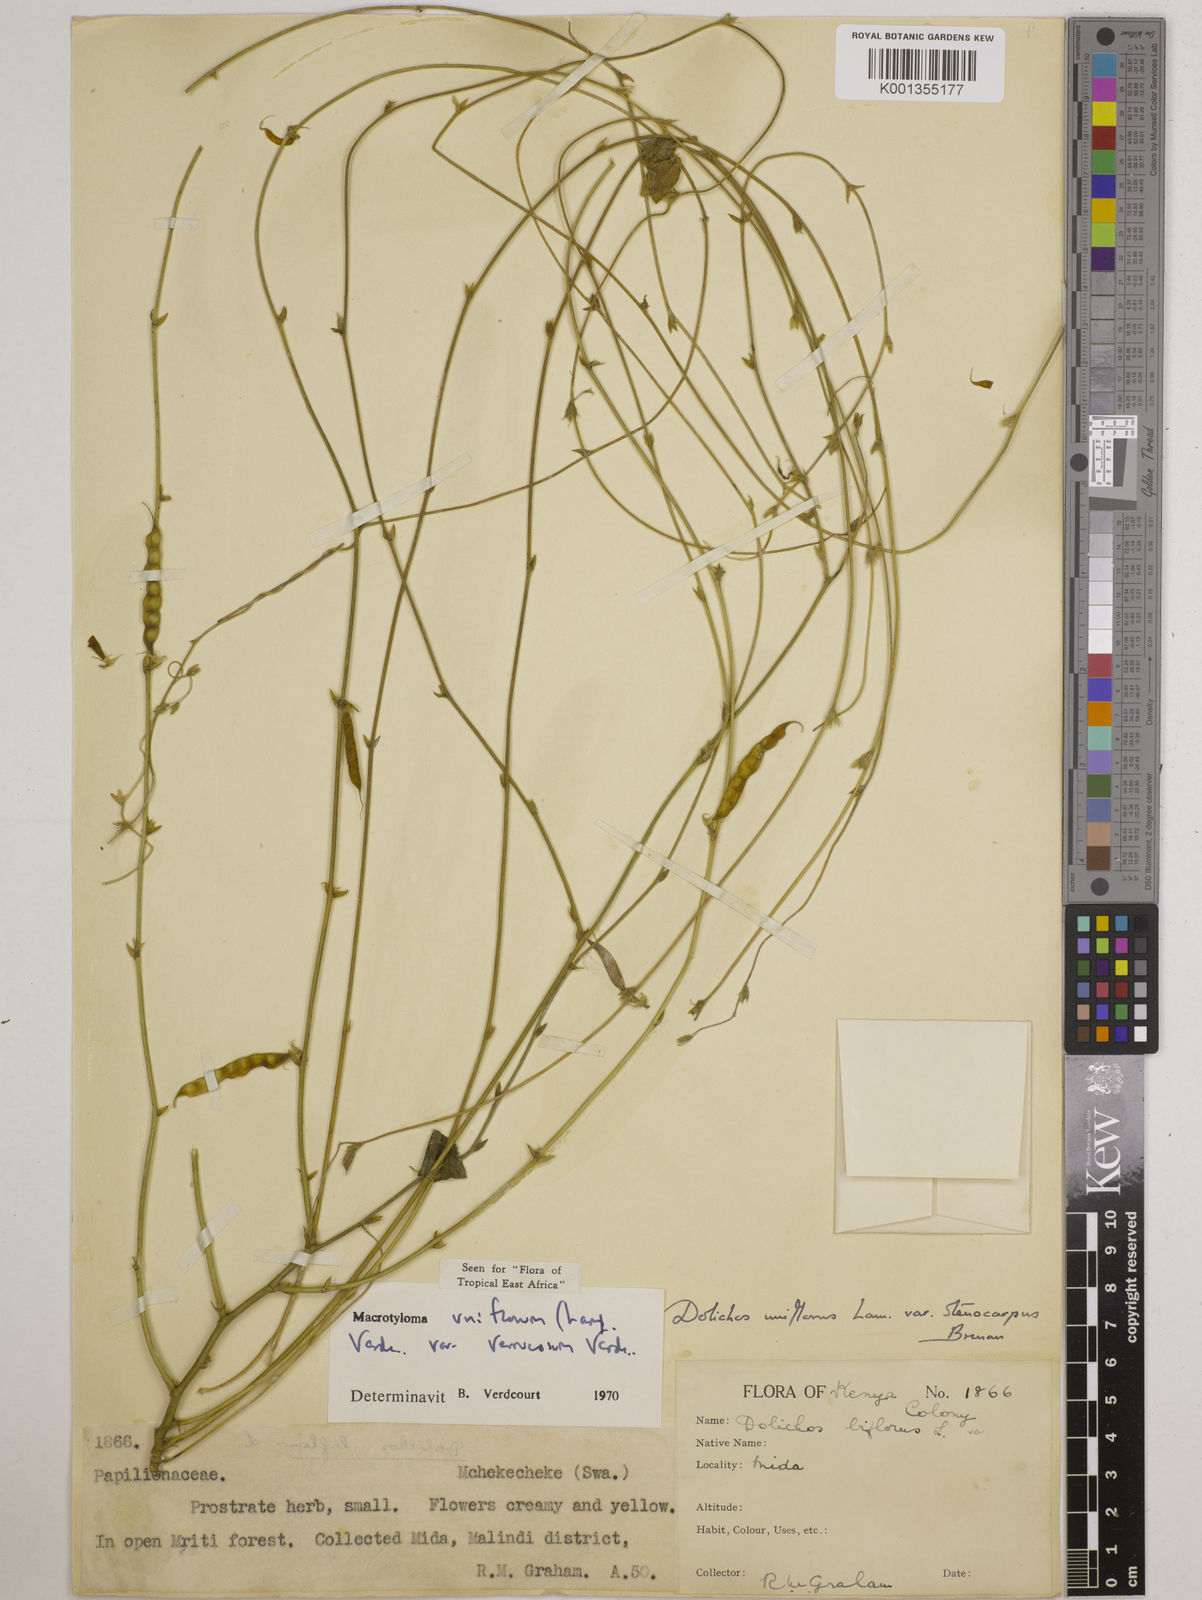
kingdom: Plantae
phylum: Tracheophyta
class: Magnoliopsida
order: Fabales
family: Fabaceae
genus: Macrotyloma
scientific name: Macrotyloma
